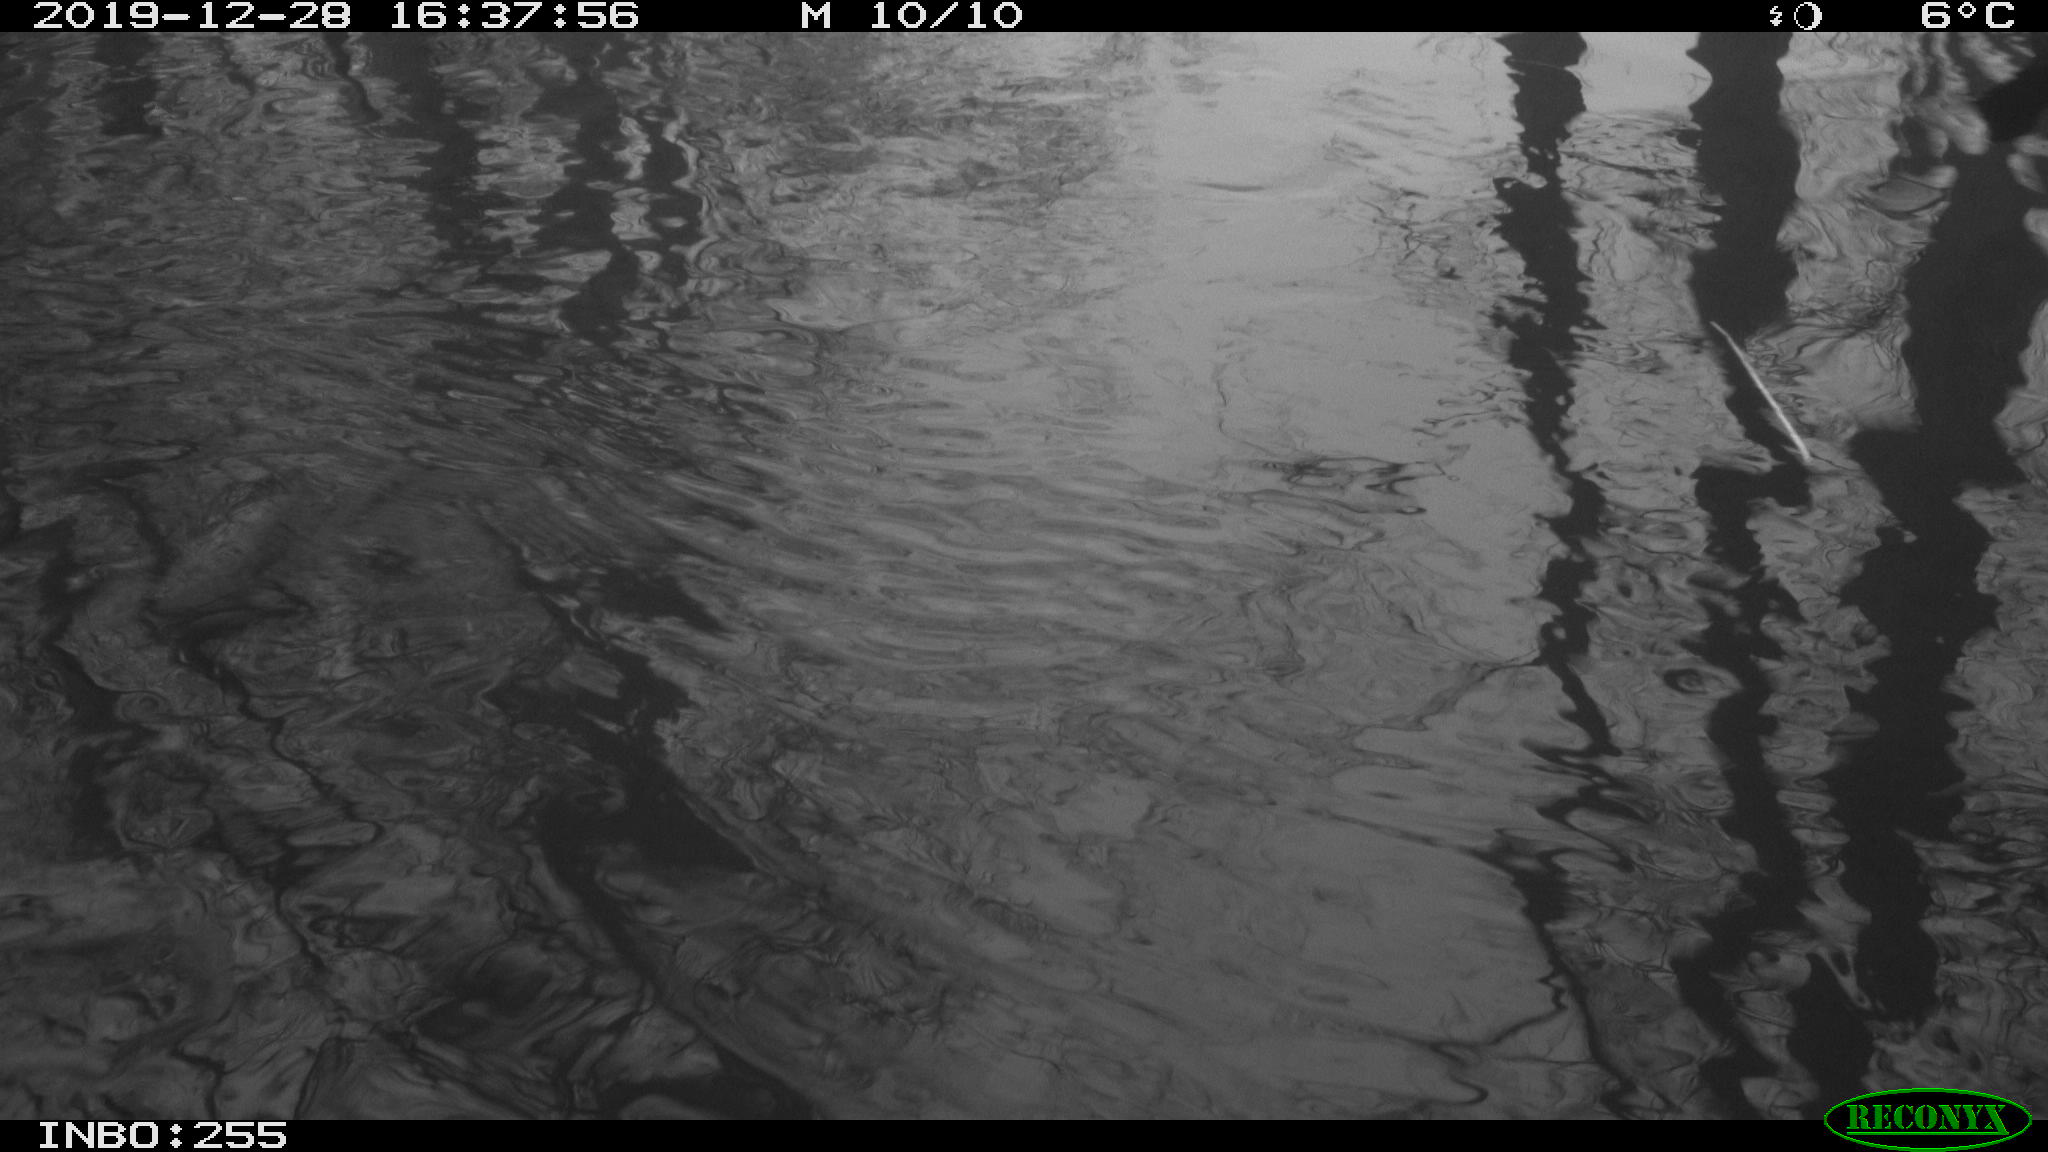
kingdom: Animalia
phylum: Chordata
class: Aves
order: Gruiformes
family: Rallidae
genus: Fulica
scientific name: Fulica atra
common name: Eurasian coot
